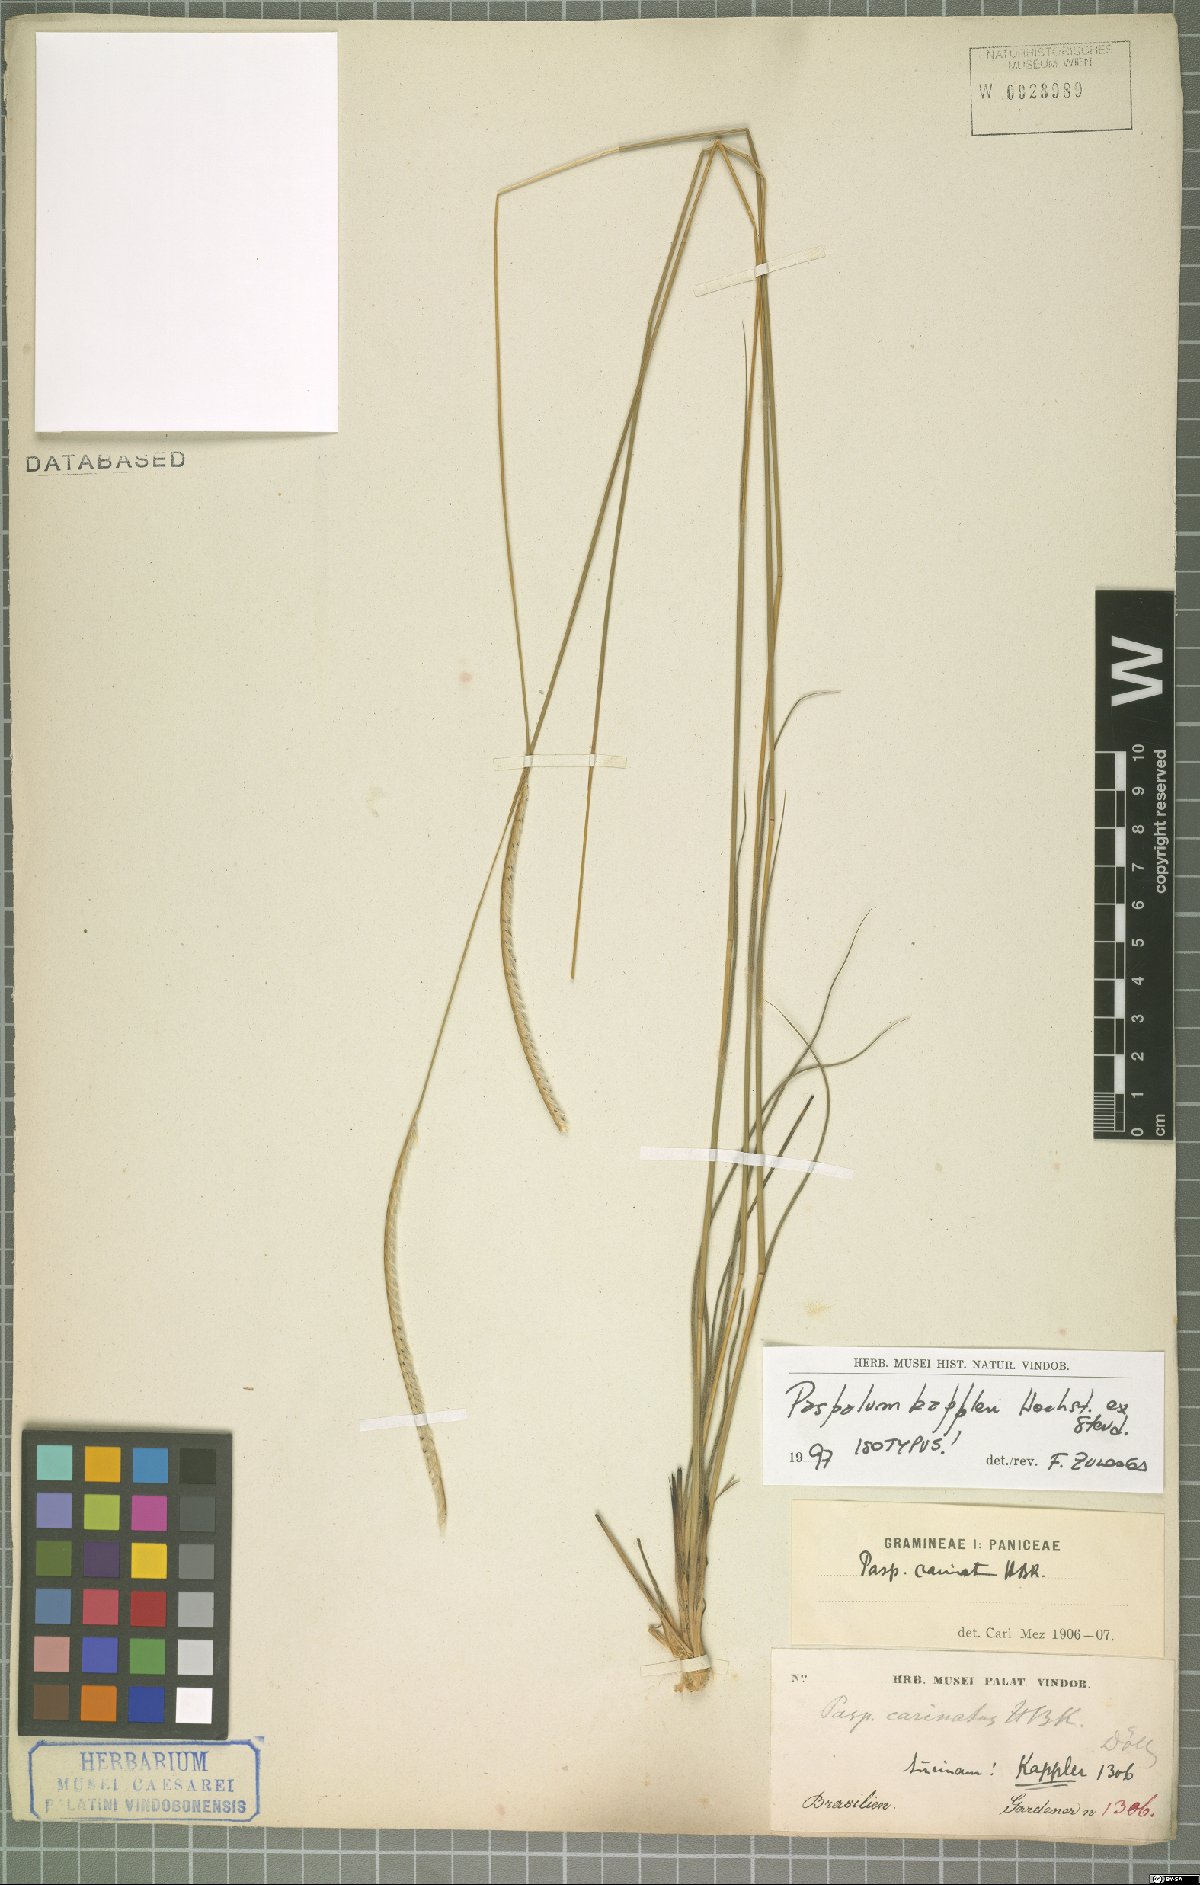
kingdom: Plantae
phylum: Tracheophyta
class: Liliopsida
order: Poales
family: Poaceae
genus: Paspalum
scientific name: Paspalum carinatum
